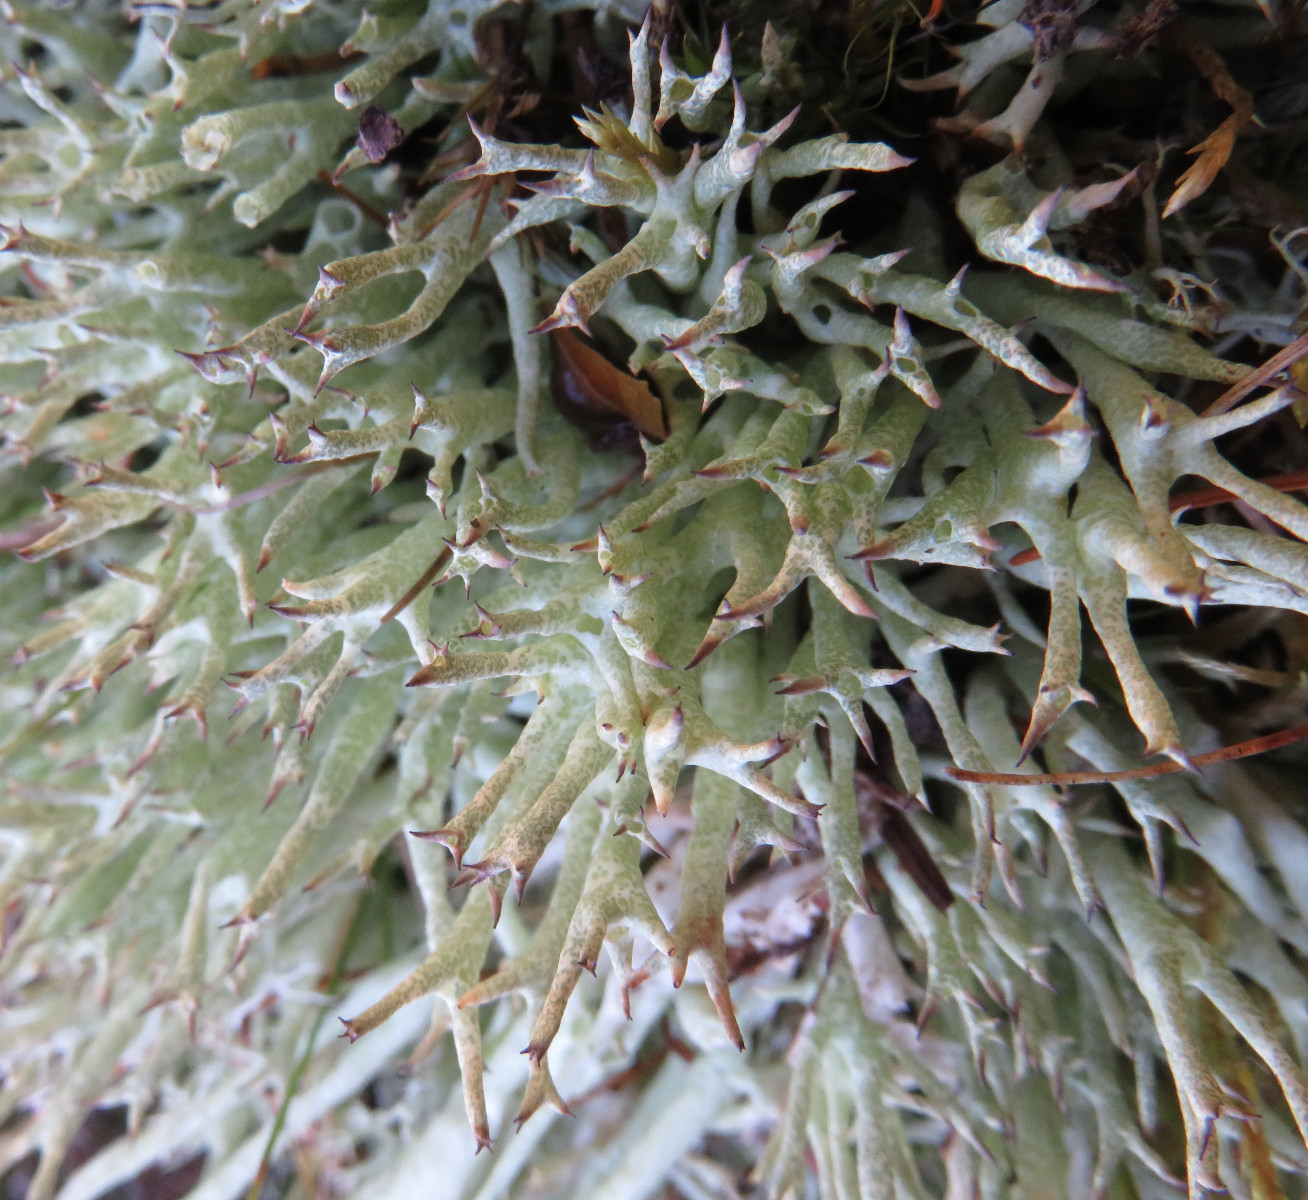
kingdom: Fungi
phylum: Ascomycota
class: Lecanoromycetes
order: Lecanorales
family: Cladoniaceae
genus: Cladonia
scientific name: Cladonia uncialis
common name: pigget bægerlav
